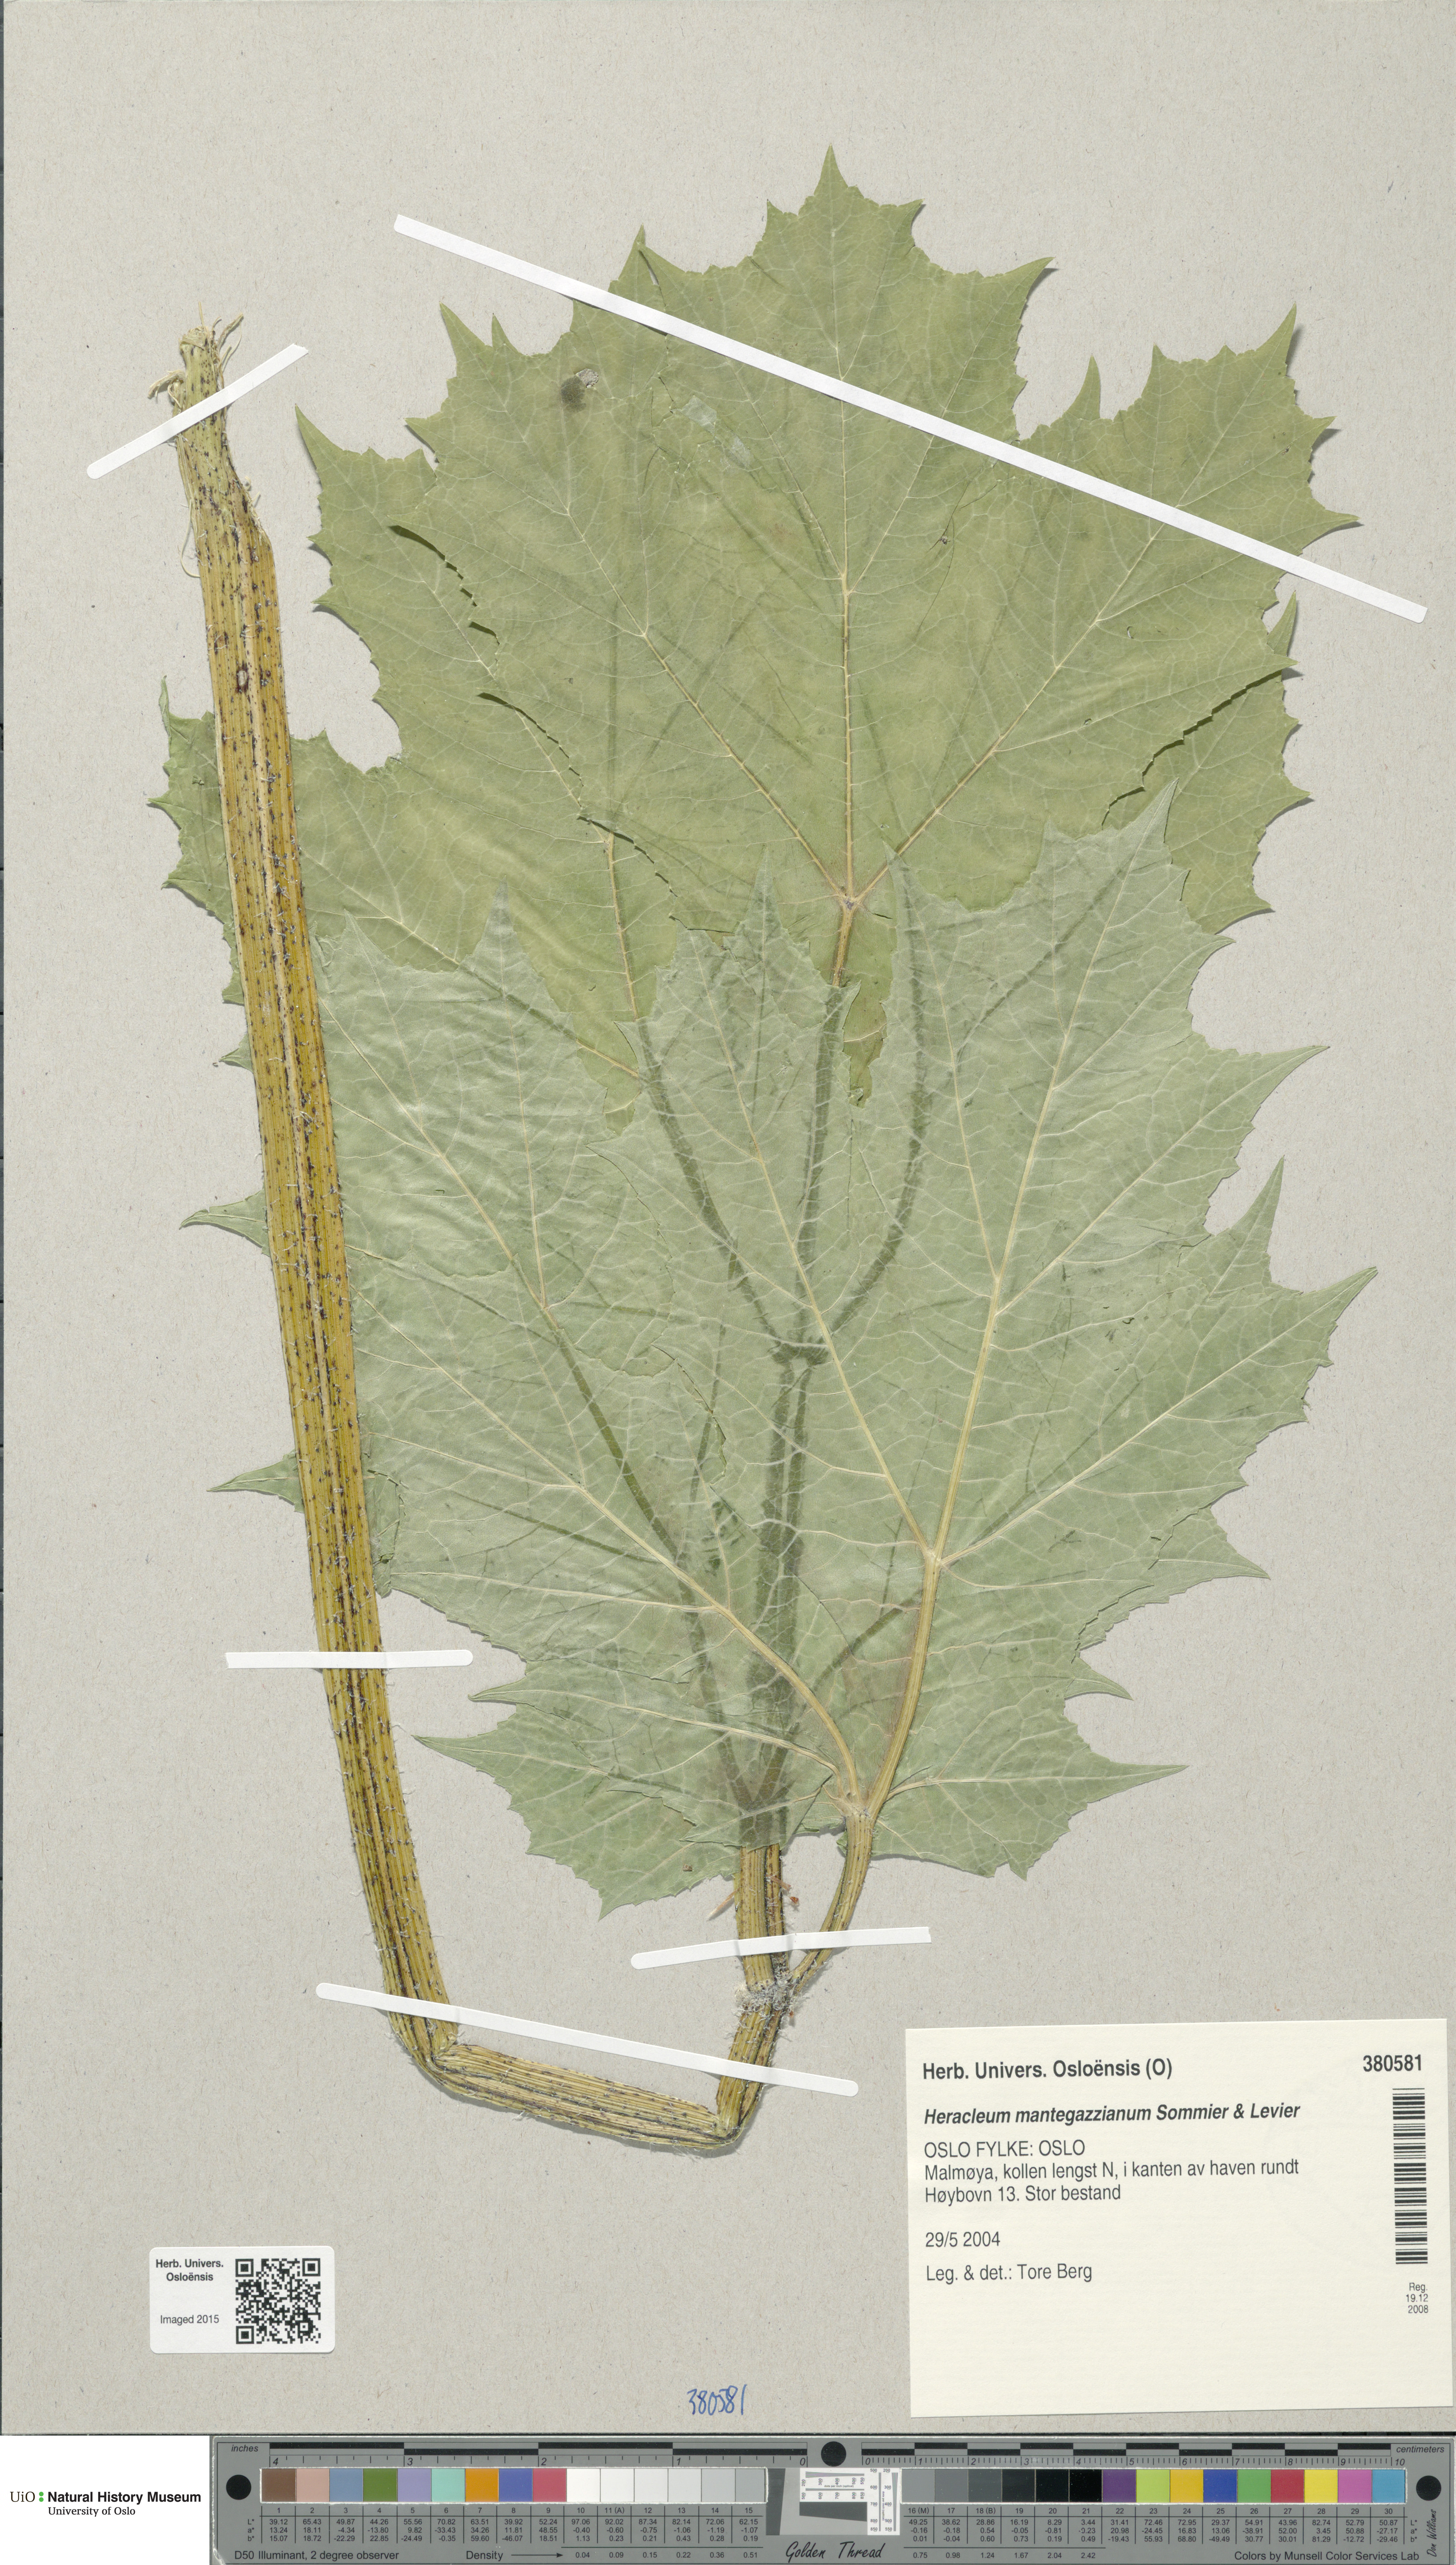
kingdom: Plantae
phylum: Tracheophyta
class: Magnoliopsida
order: Apiales
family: Apiaceae
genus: Heracleum
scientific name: Heracleum mantegazzianum
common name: Giant hogweed
